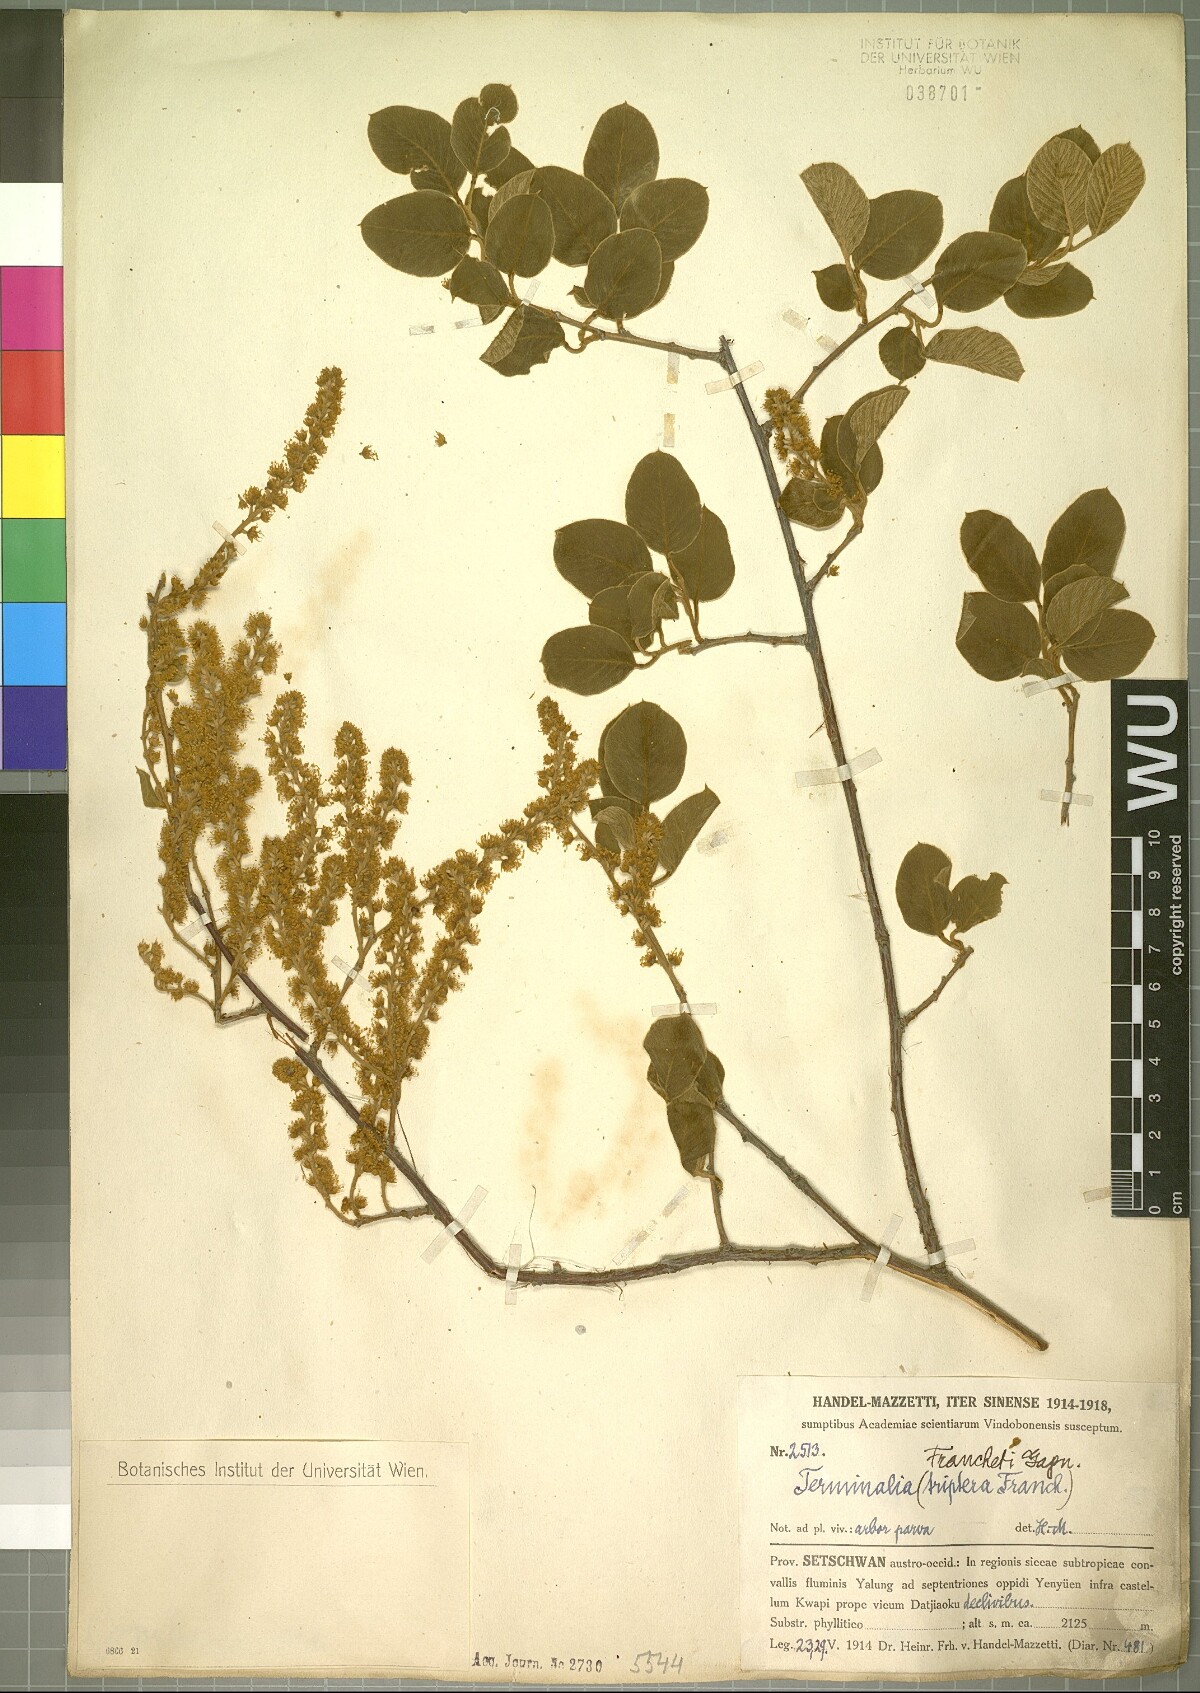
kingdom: Plantae
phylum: Tracheophyta
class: Magnoliopsida
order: Myrtales
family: Combretaceae
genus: Terminalia
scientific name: Terminalia franchetii
